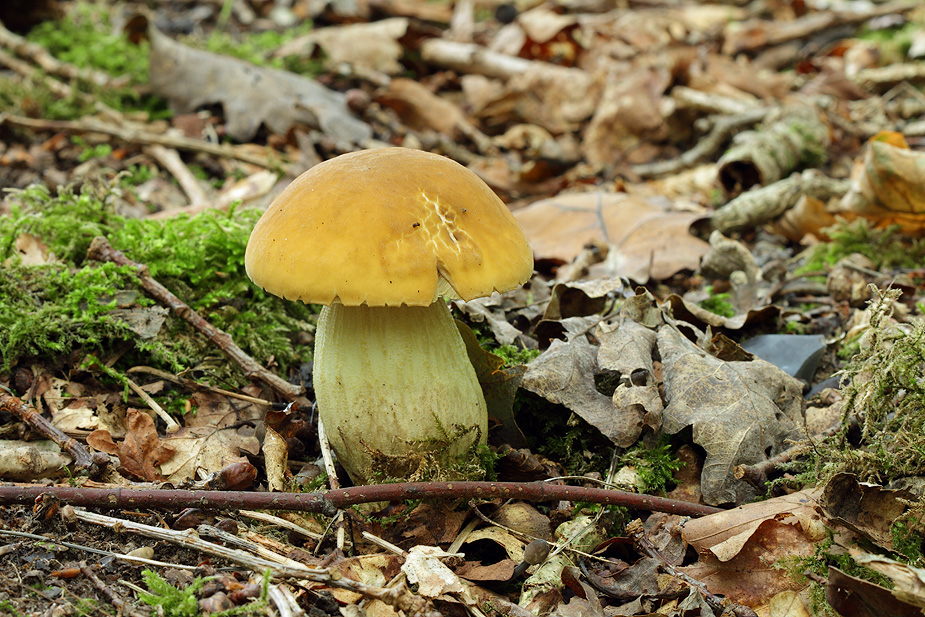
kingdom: Fungi
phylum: Basidiomycota
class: Agaricomycetes
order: Boletales
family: Boletaceae
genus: Leccinellum
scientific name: Leccinellum crocipodium
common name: gul skælrørhat
